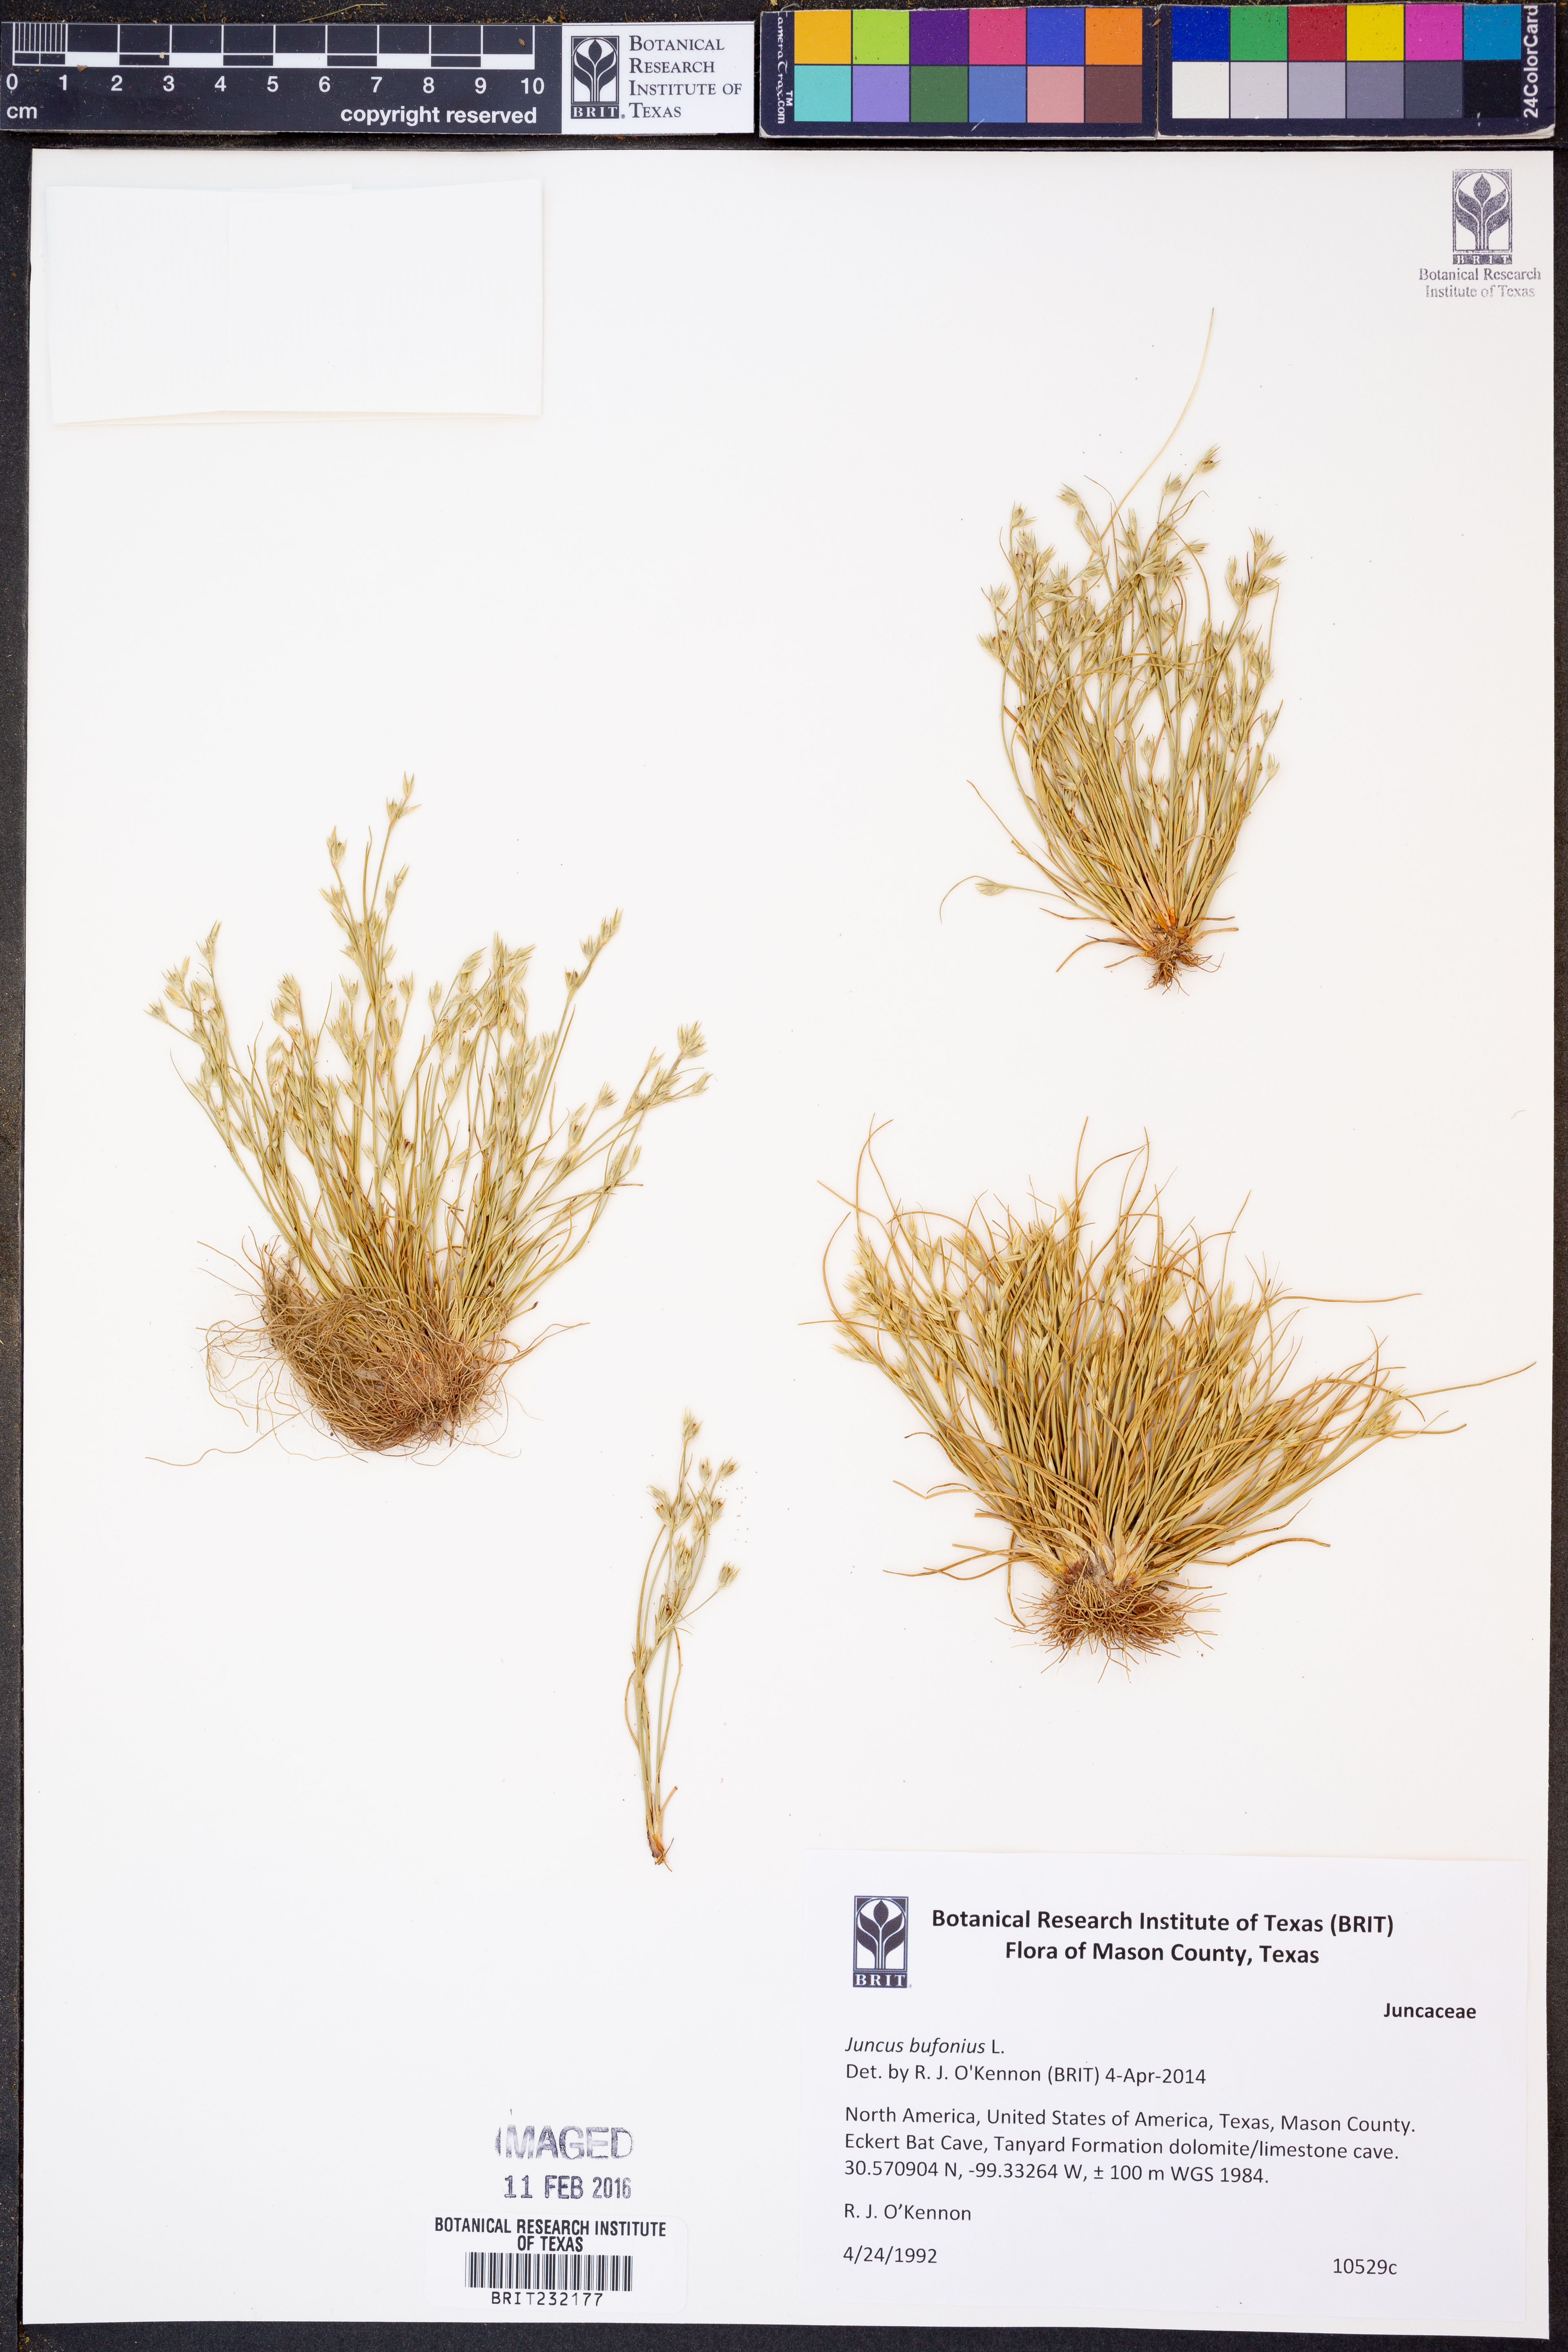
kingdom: Plantae
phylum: Tracheophyta
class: Liliopsida
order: Poales
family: Juncaceae
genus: Juncus
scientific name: Juncus bufonius
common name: Toad rush
